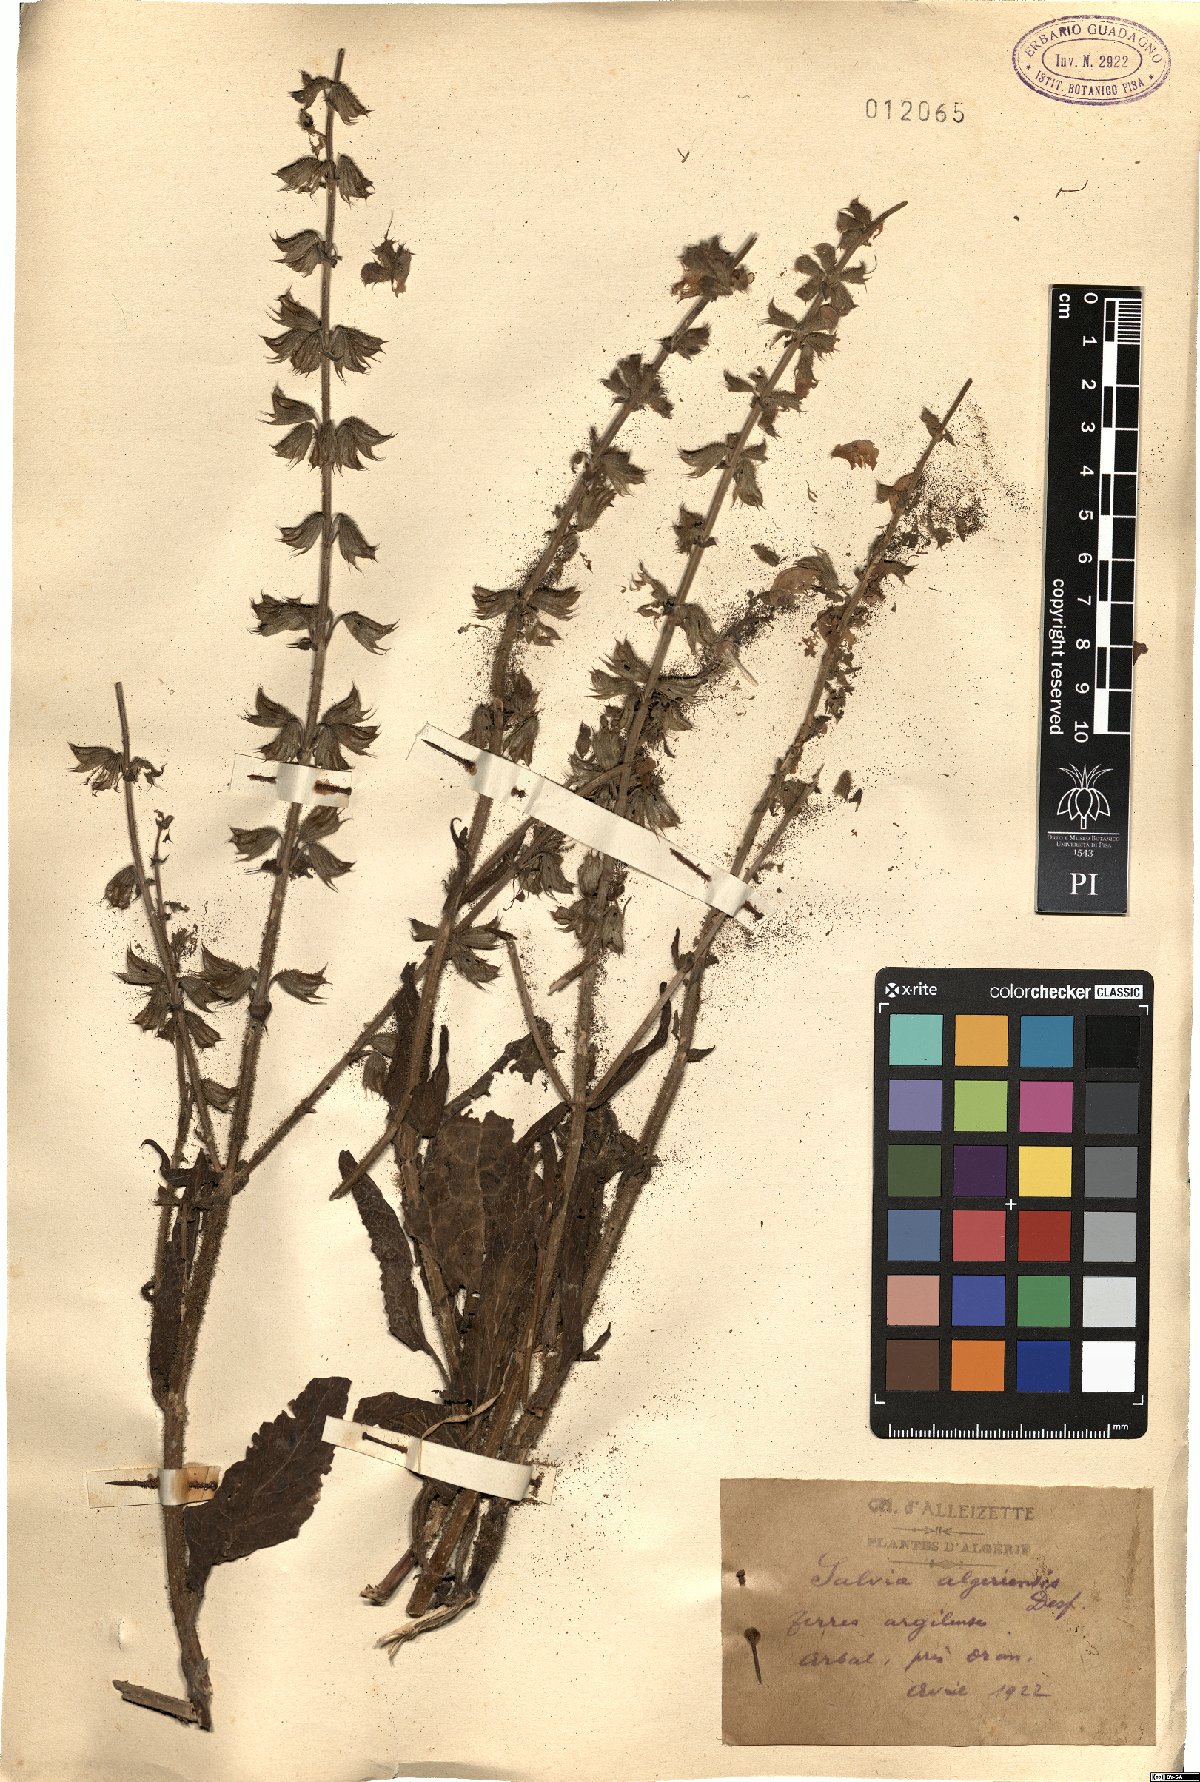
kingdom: Plantae
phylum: Tracheophyta
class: Magnoliopsida
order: Lamiales
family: Lamiaceae
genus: Salvia
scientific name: Salvia algeriensis
